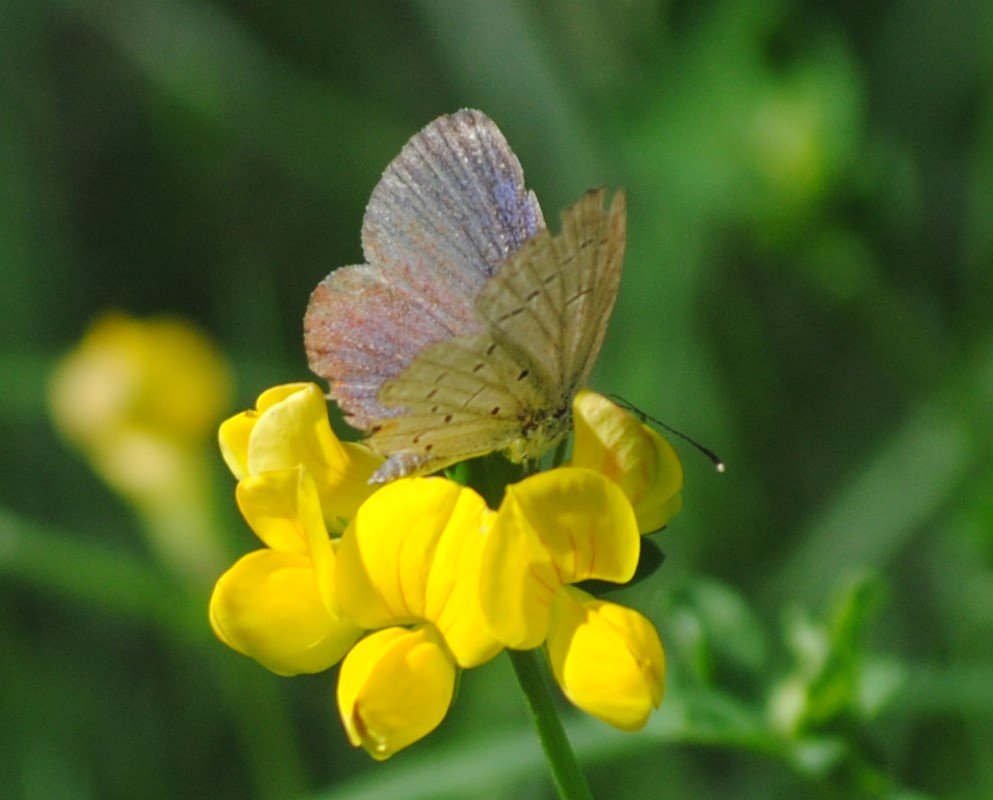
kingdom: Animalia
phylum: Arthropoda
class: Insecta
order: Lepidoptera
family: Lycaenidae
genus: Elkalyce
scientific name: Elkalyce comyntas
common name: Eastern Tailed-Blue
